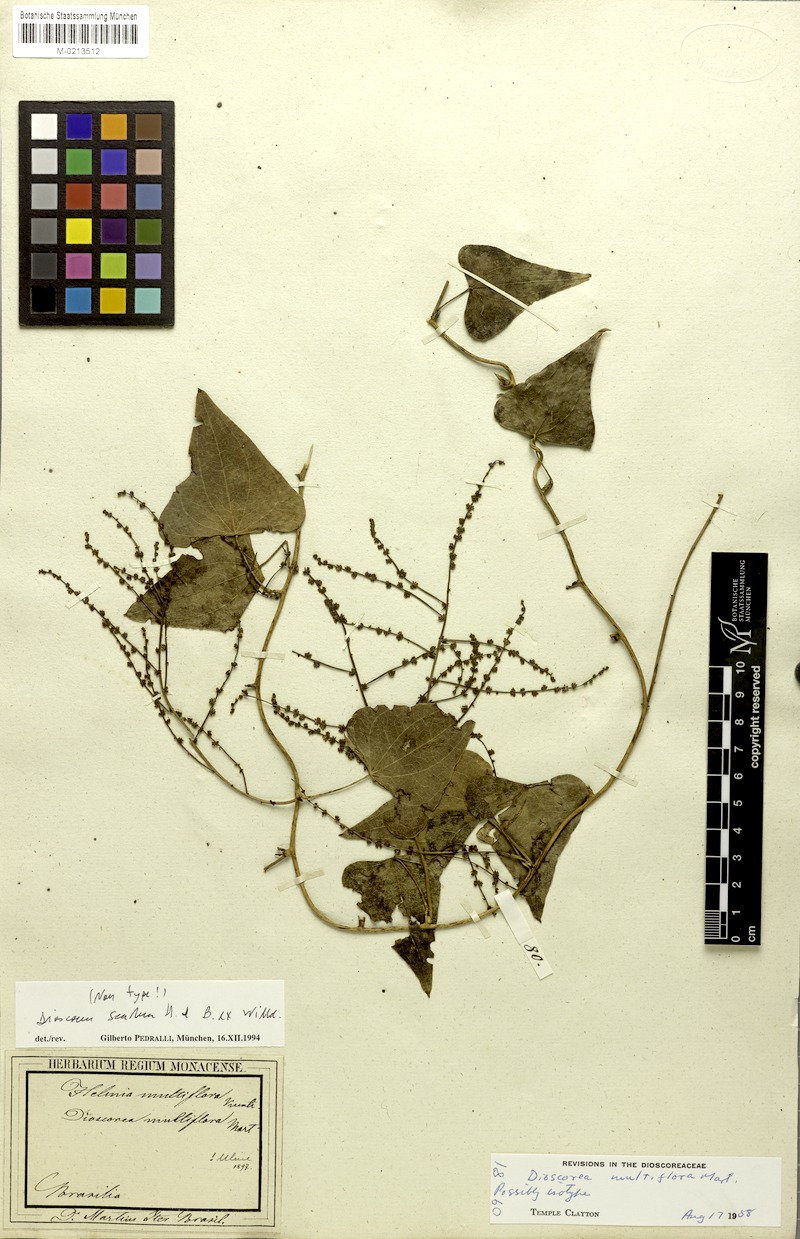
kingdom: Plantae
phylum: Tracheophyta
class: Liliopsida
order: Dioscoreales
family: Dioscoreaceae
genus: Dioscorea
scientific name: Dioscorea multiflora
